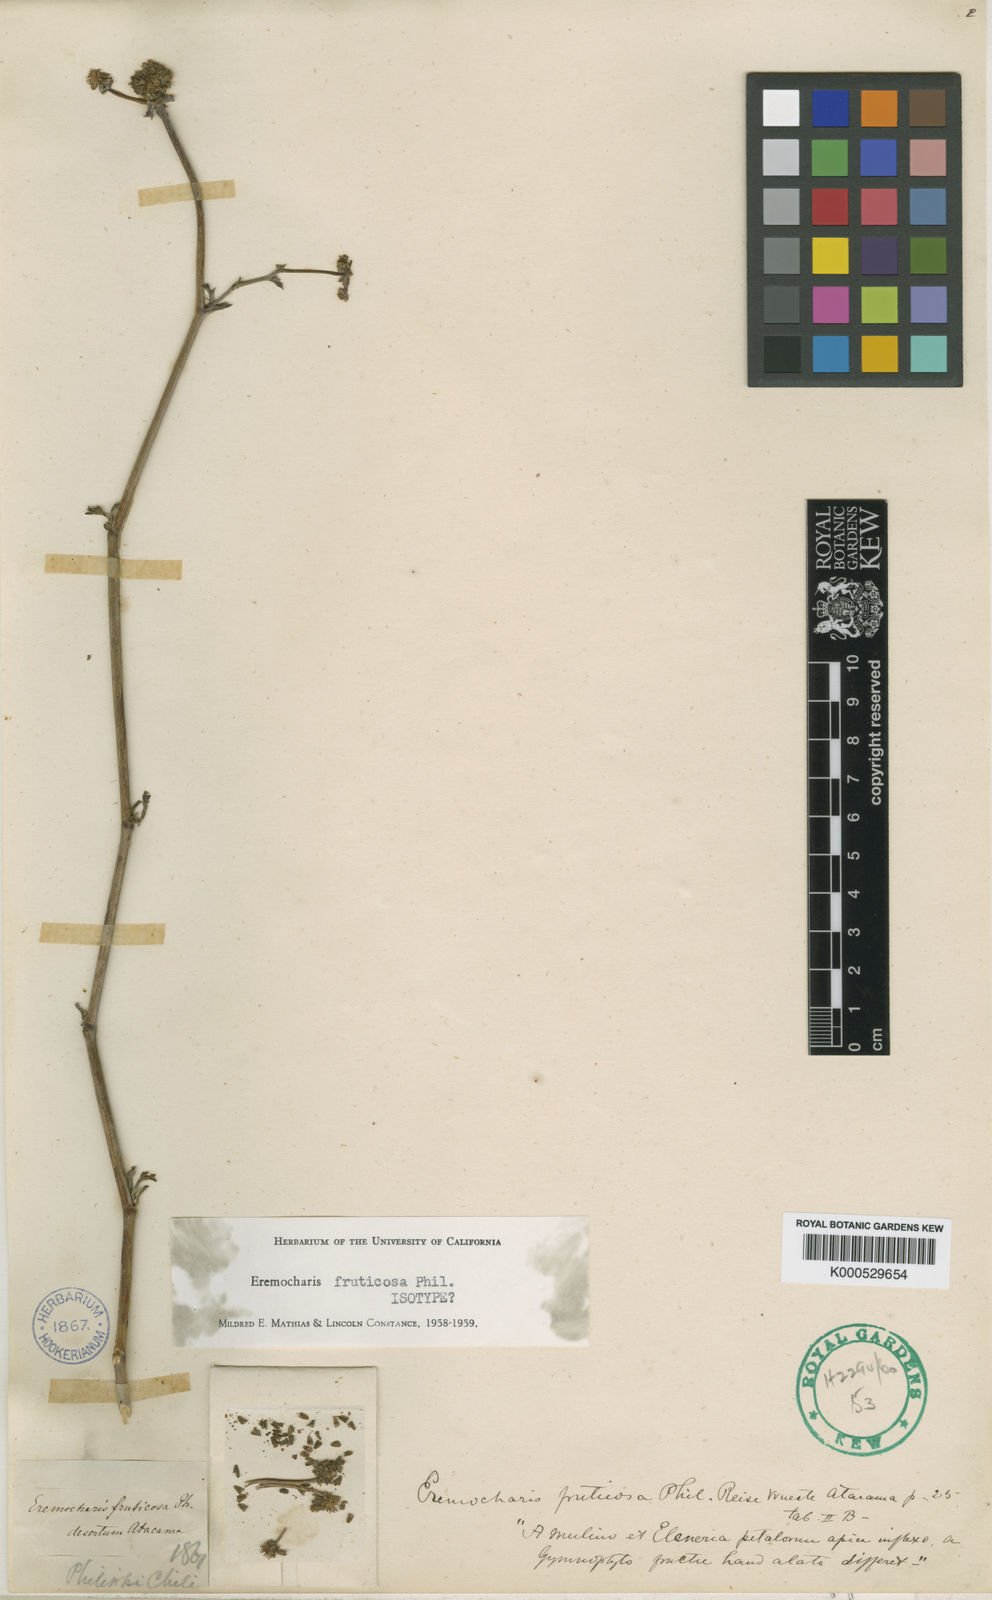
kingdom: Plantae
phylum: Tracheophyta
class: Magnoliopsida
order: Apiales
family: Apiaceae
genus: Eremocharis
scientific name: Eremocharis fruticosa
